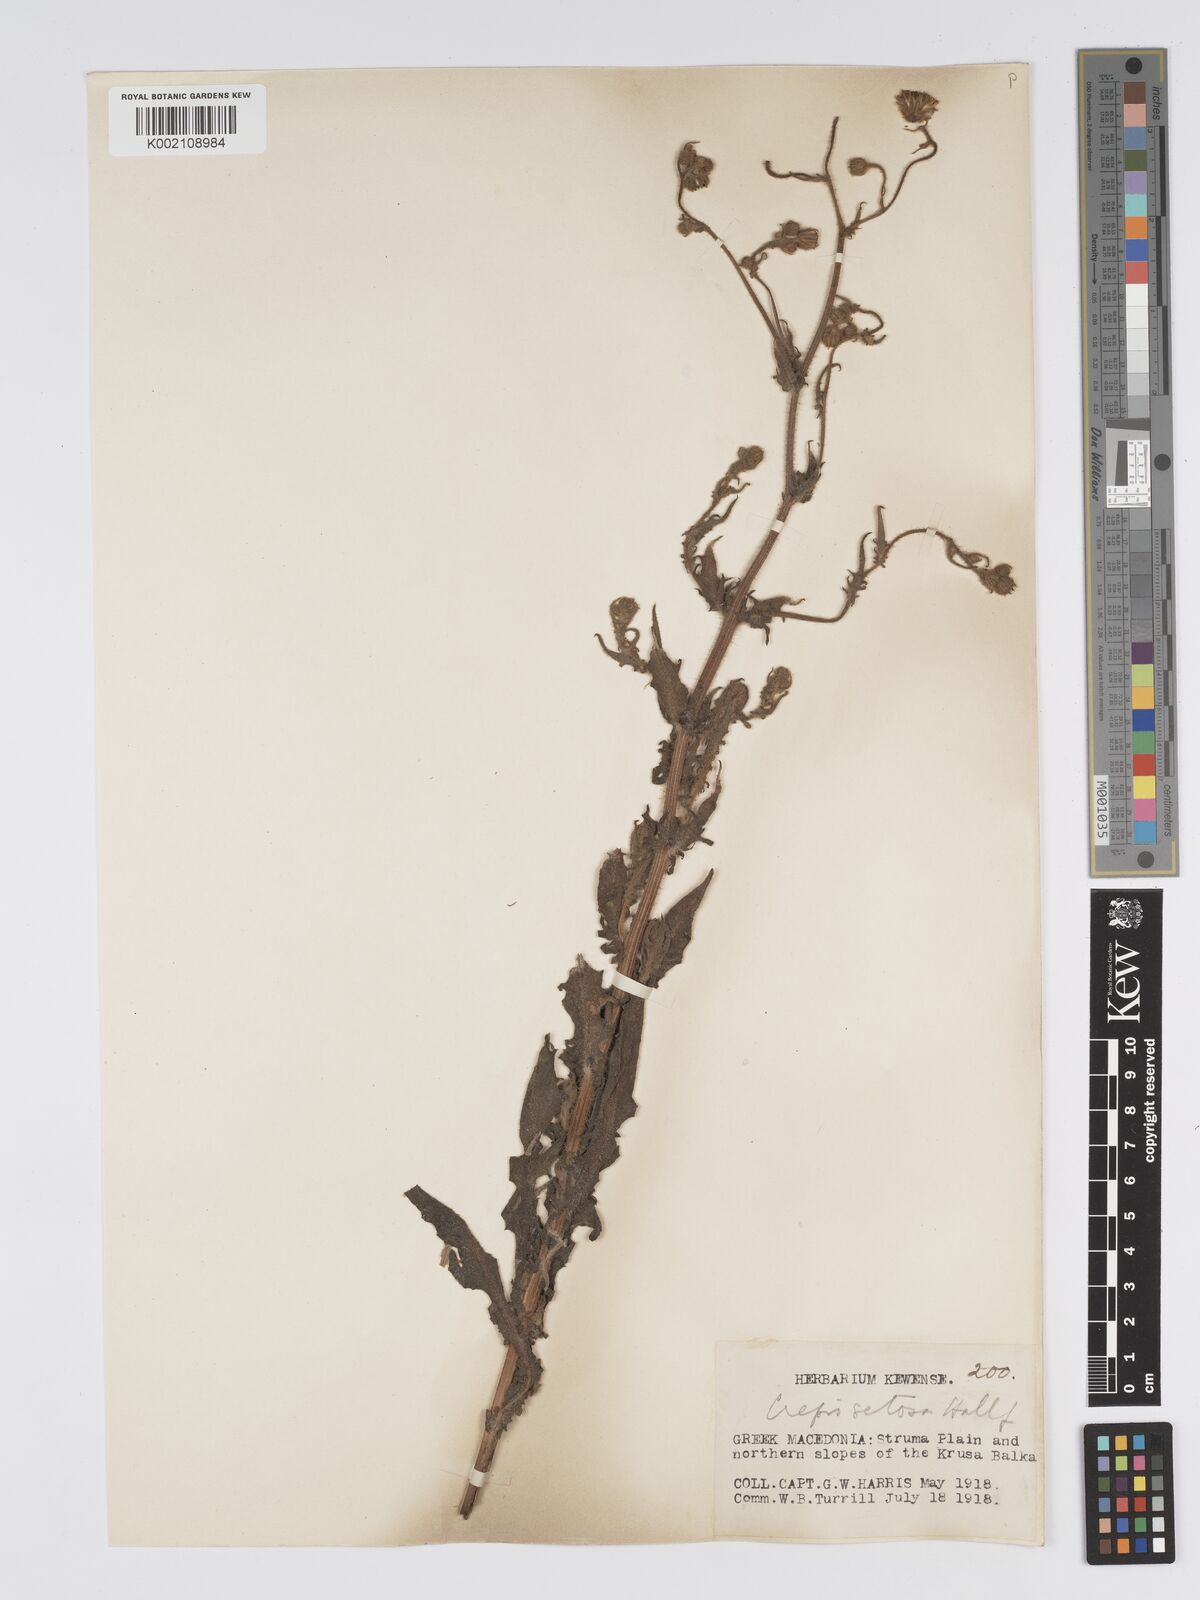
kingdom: Plantae
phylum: Tracheophyta
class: Magnoliopsida
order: Asterales
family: Asteraceae
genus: Crepis
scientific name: Crepis setosa
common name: Bristly hawk's-beard
